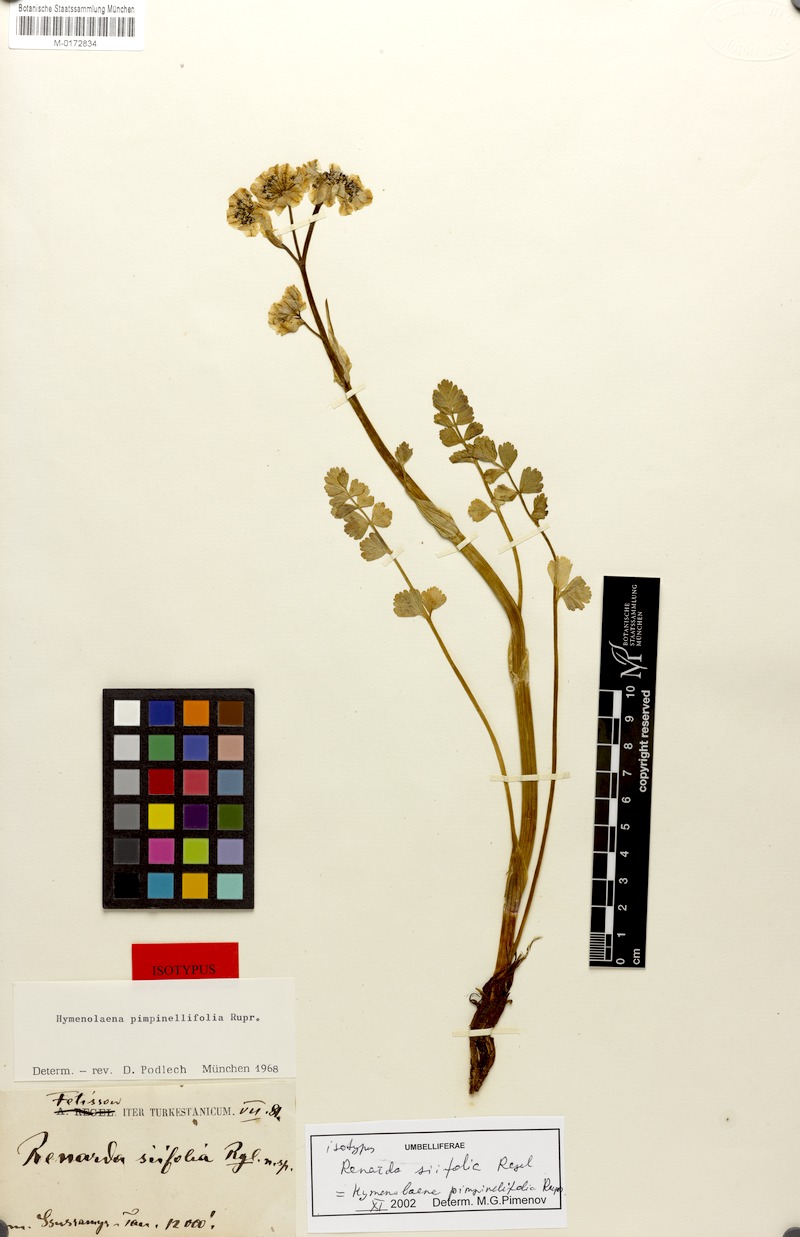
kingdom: Plantae
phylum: Tracheophyta
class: Magnoliopsida
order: Apiales
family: Apiaceae
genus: Hymenidium
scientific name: Hymenidium lindleyanum
